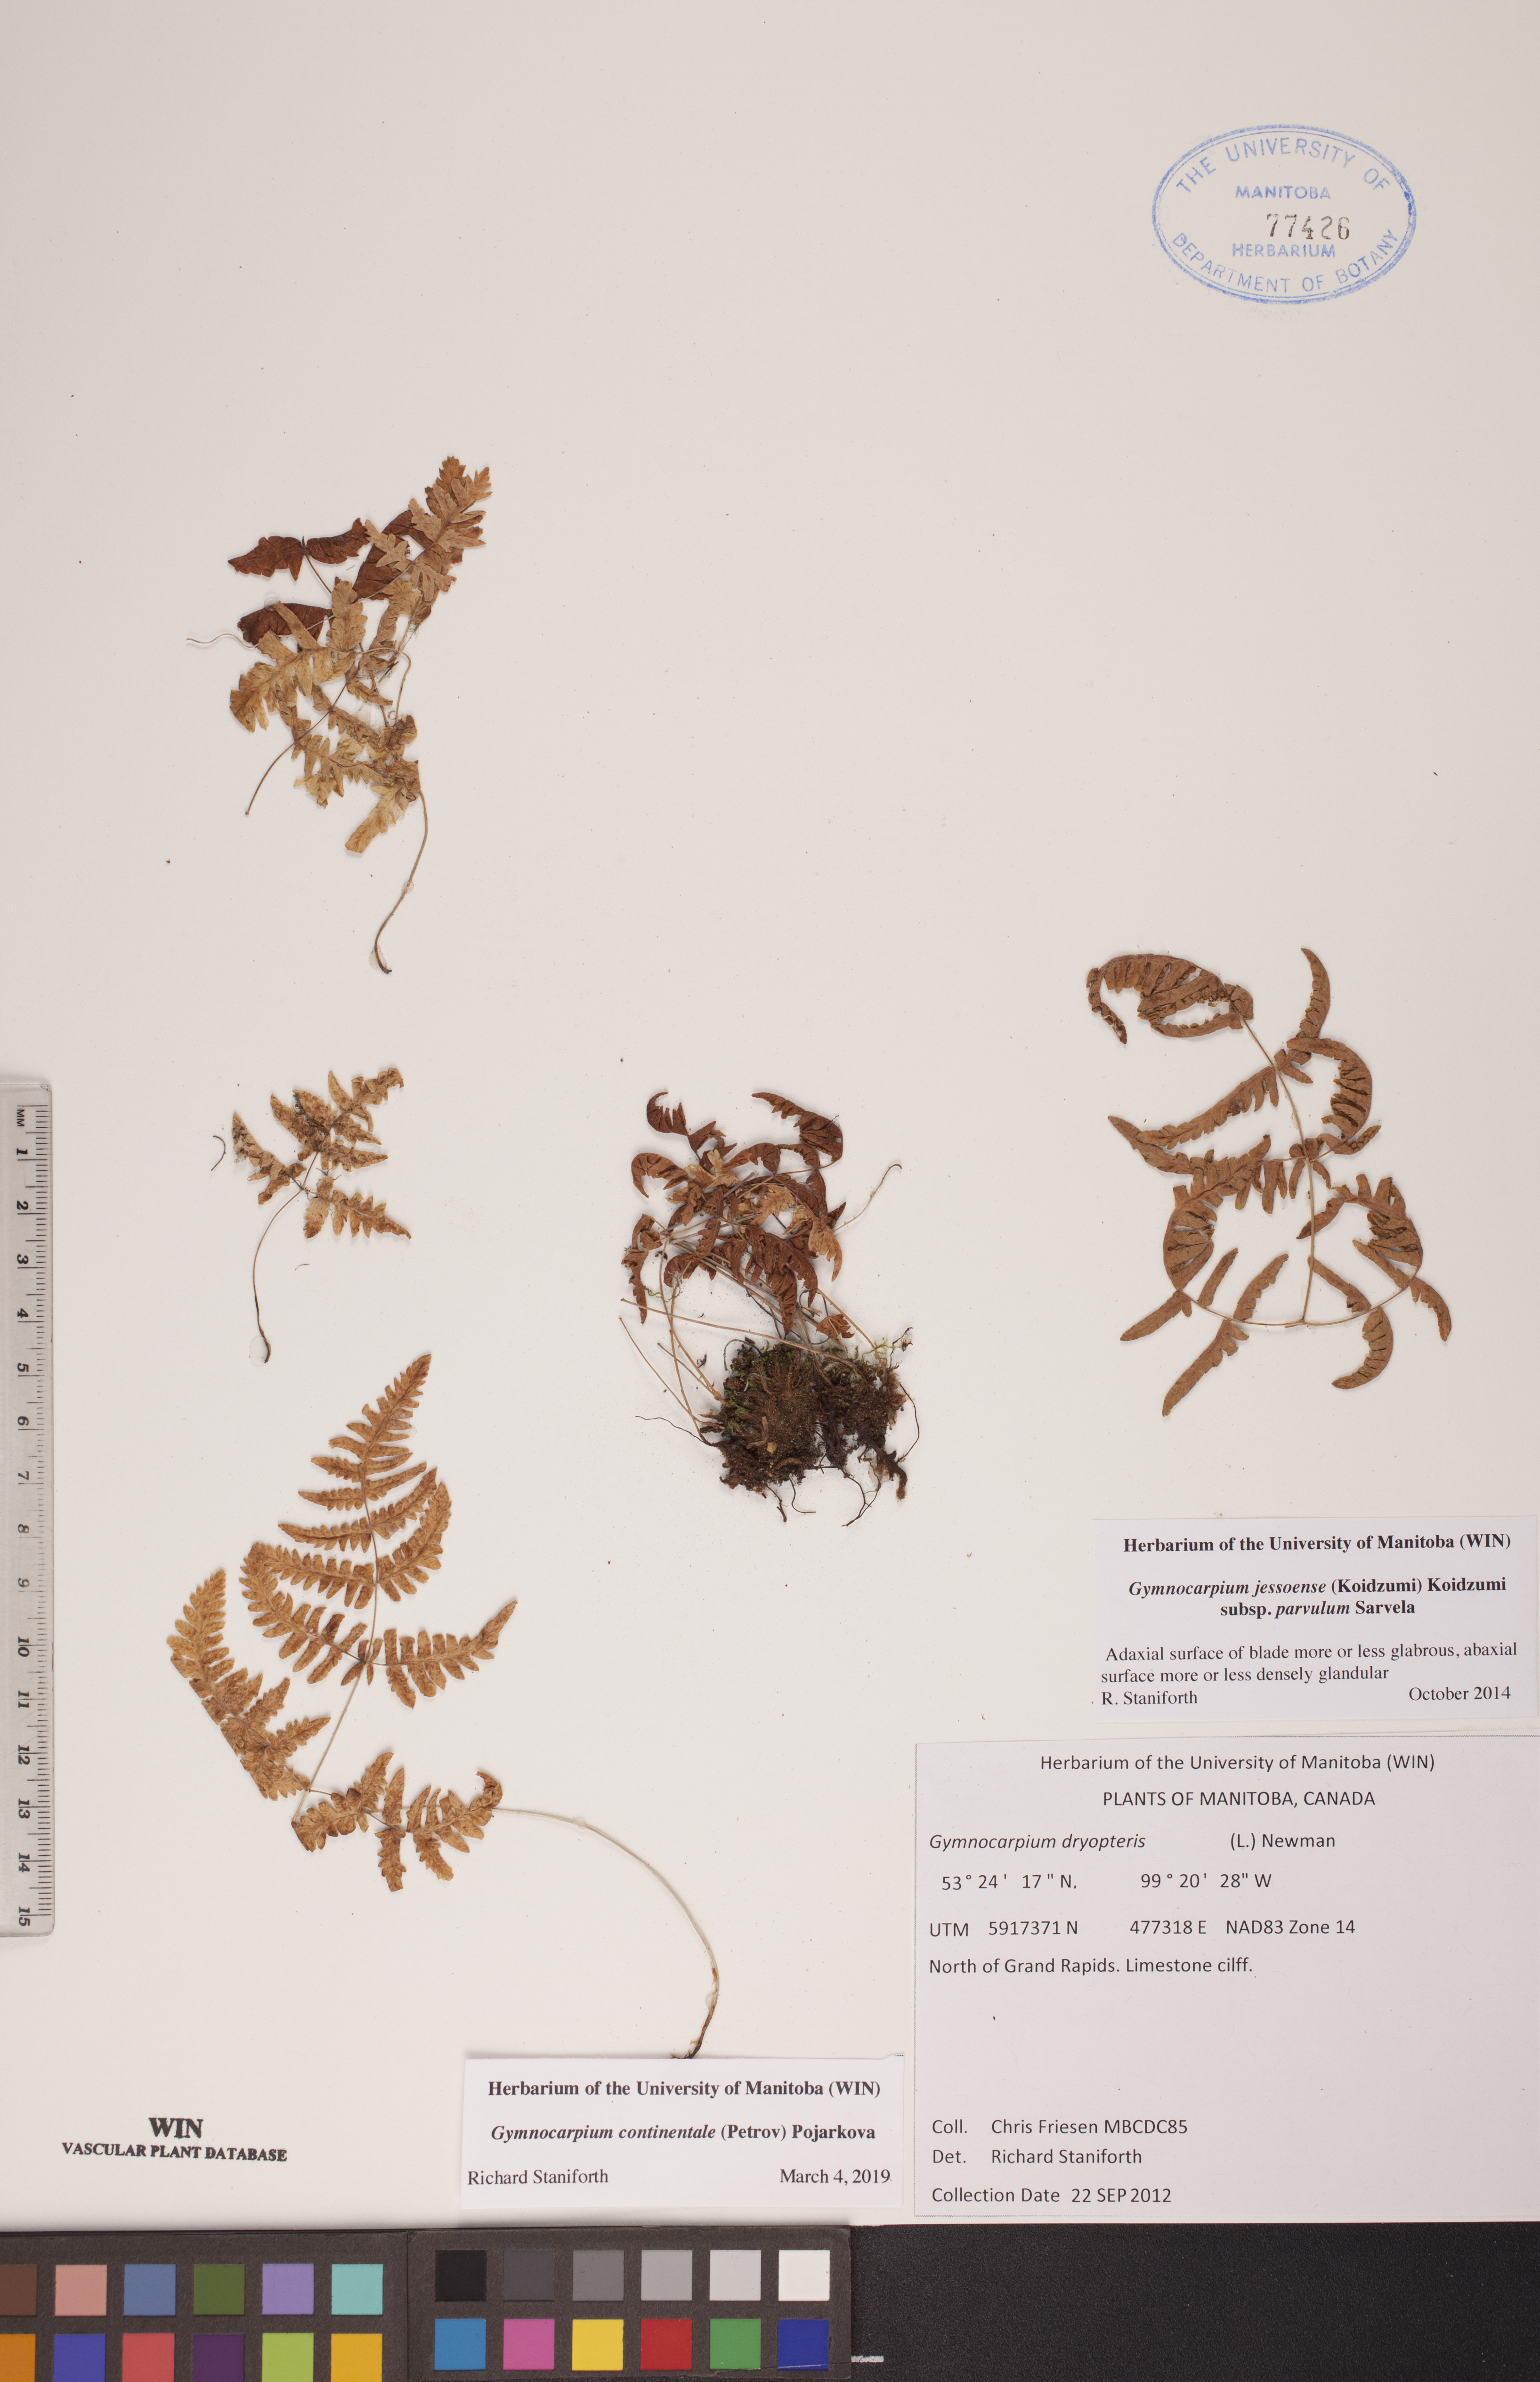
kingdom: Plantae
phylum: Tracheophyta
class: Polypodiopsida
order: Polypodiales
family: Cystopteridaceae
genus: Gymnocarpium
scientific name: Gymnocarpium continentale
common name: Asian oak fern
